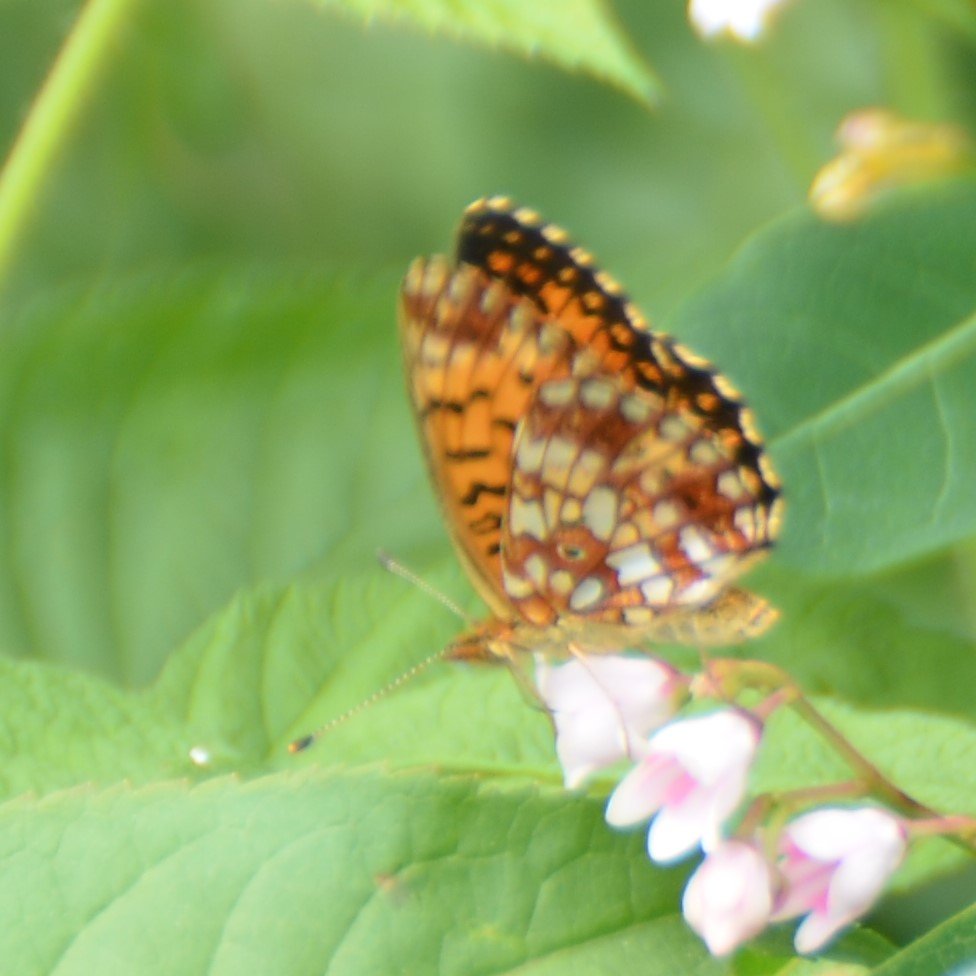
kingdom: Animalia
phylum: Arthropoda
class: Insecta
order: Lepidoptera
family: Nymphalidae
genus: Boloria
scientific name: Boloria selene
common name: Silver-bordered Fritillary
